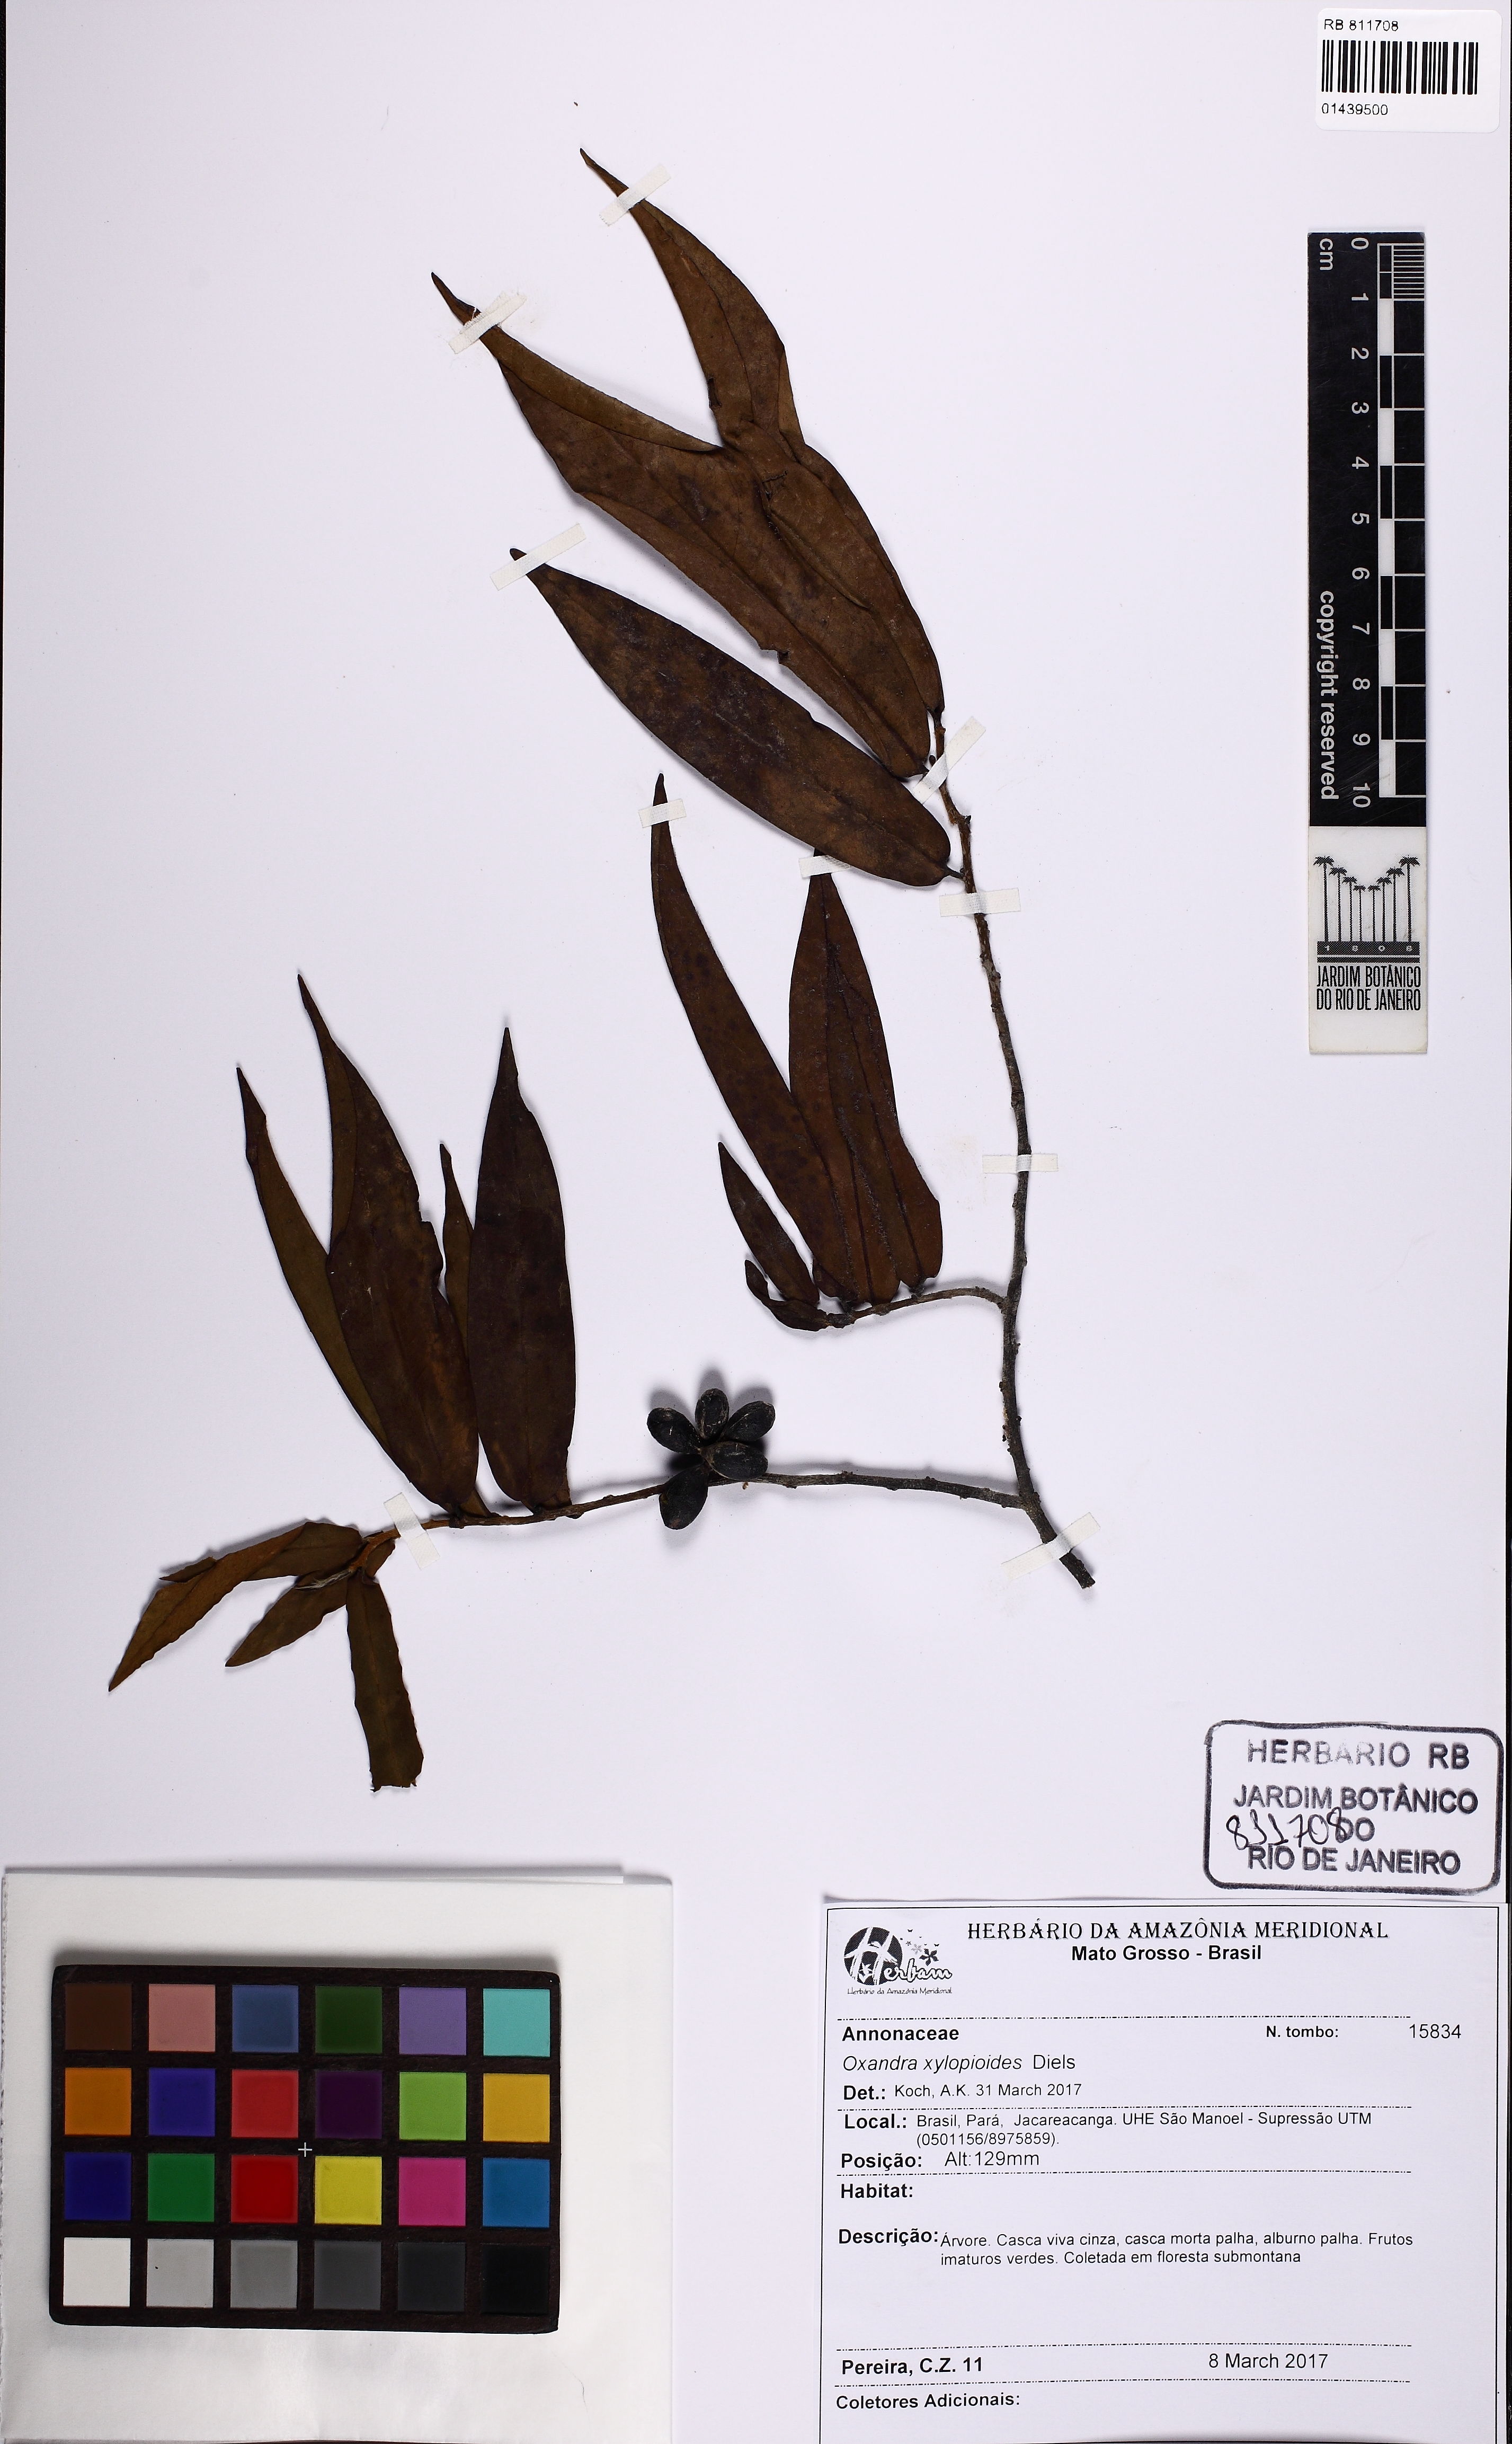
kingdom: Plantae
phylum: Tracheophyta
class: Magnoliopsida
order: Magnoliales
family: Annonaceae
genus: Oxandra
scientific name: Oxandra xylopioides
